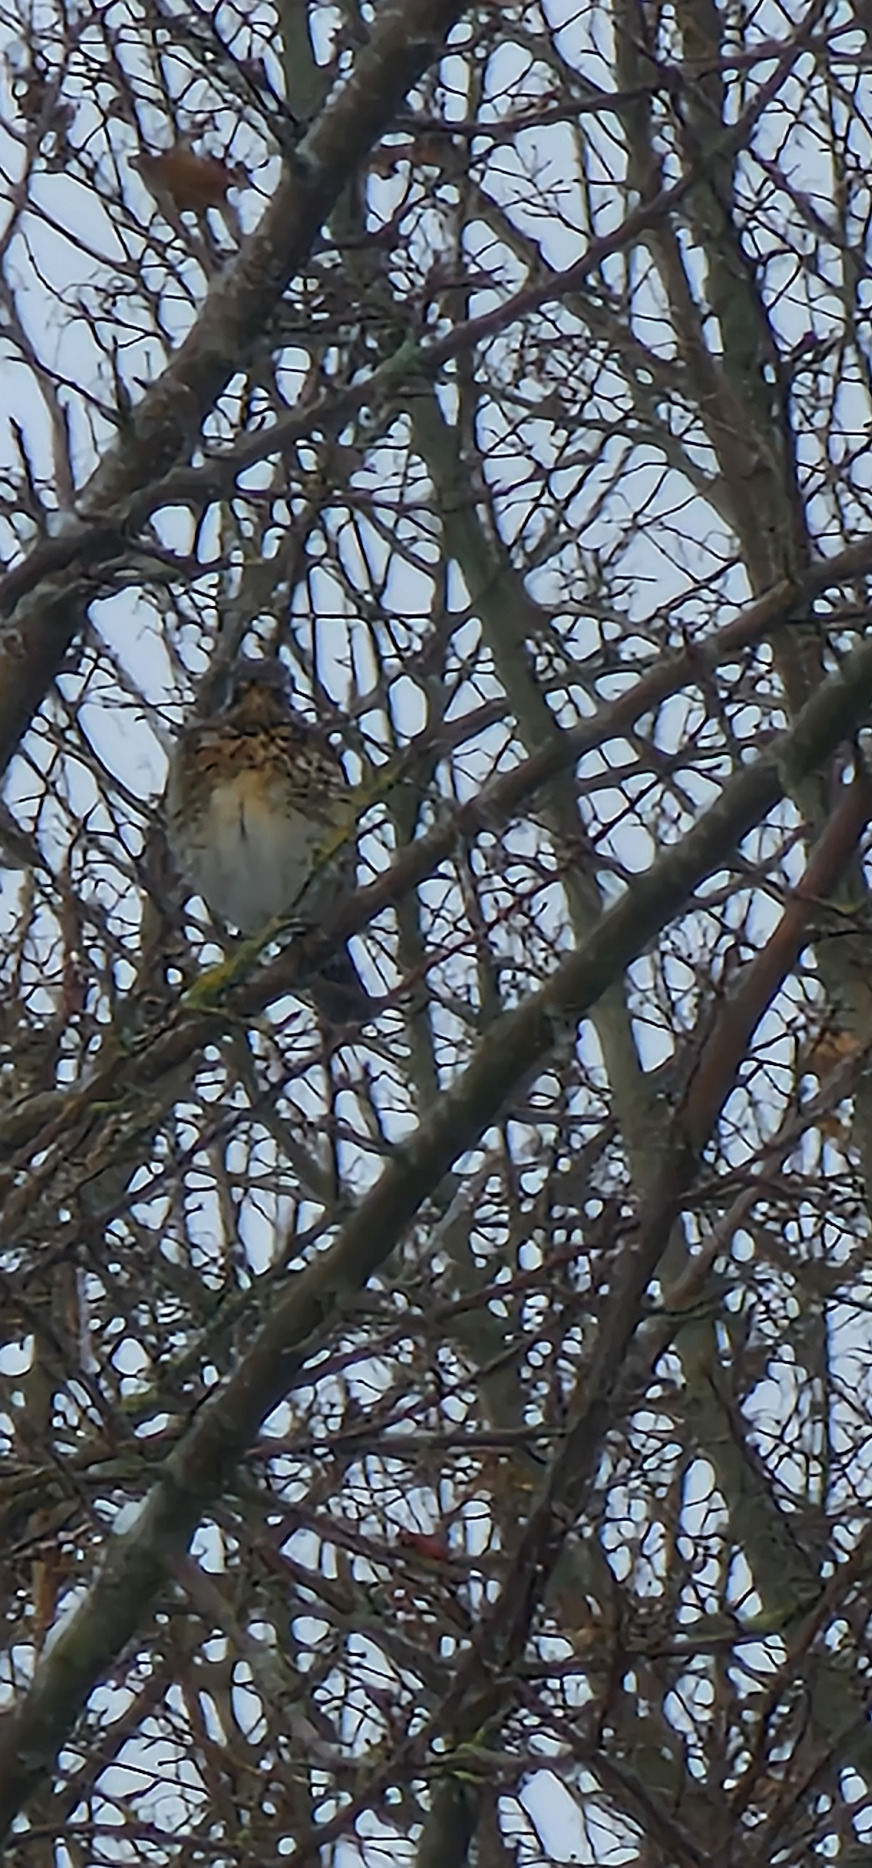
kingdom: Animalia
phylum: Chordata
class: Aves
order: Passeriformes
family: Turdidae
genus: Turdus
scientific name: Turdus pilaris
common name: Sjagger
